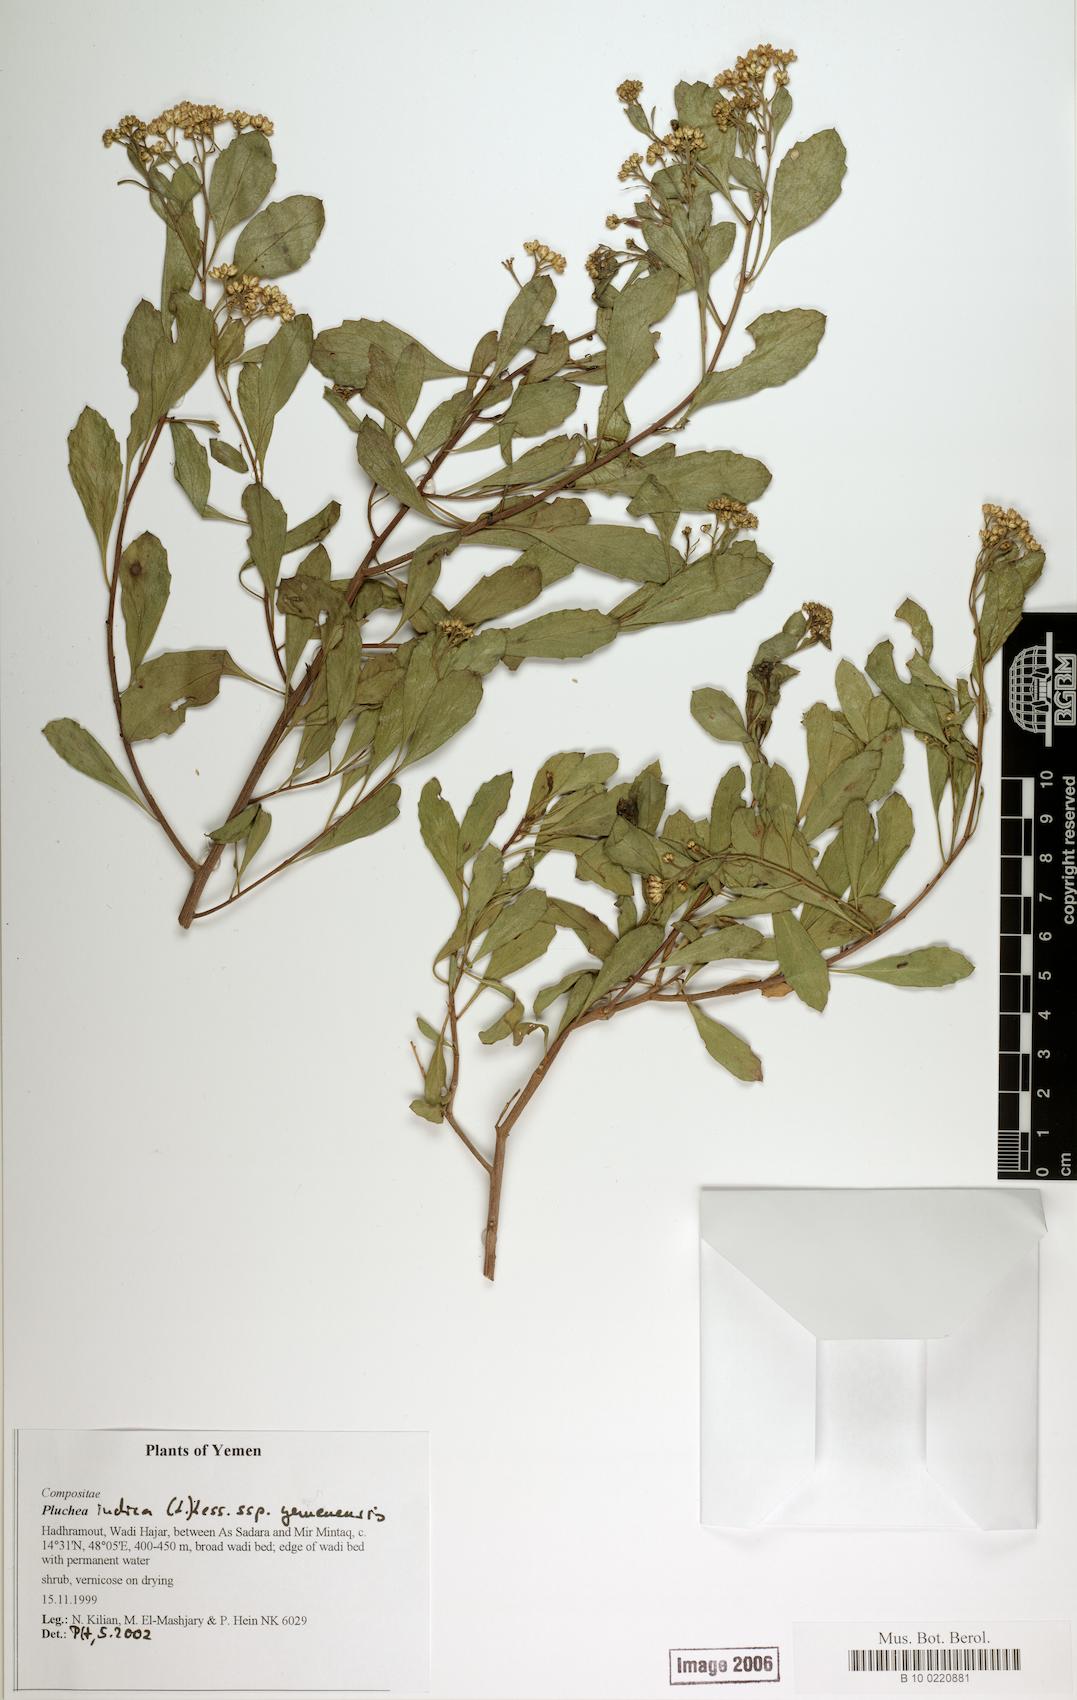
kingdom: Plantae
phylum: Tracheophyta
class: Magnoliopsida
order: Asterales
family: Asteraceae
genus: Pluchea
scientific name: Pluchea indica
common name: Indian fleabane
